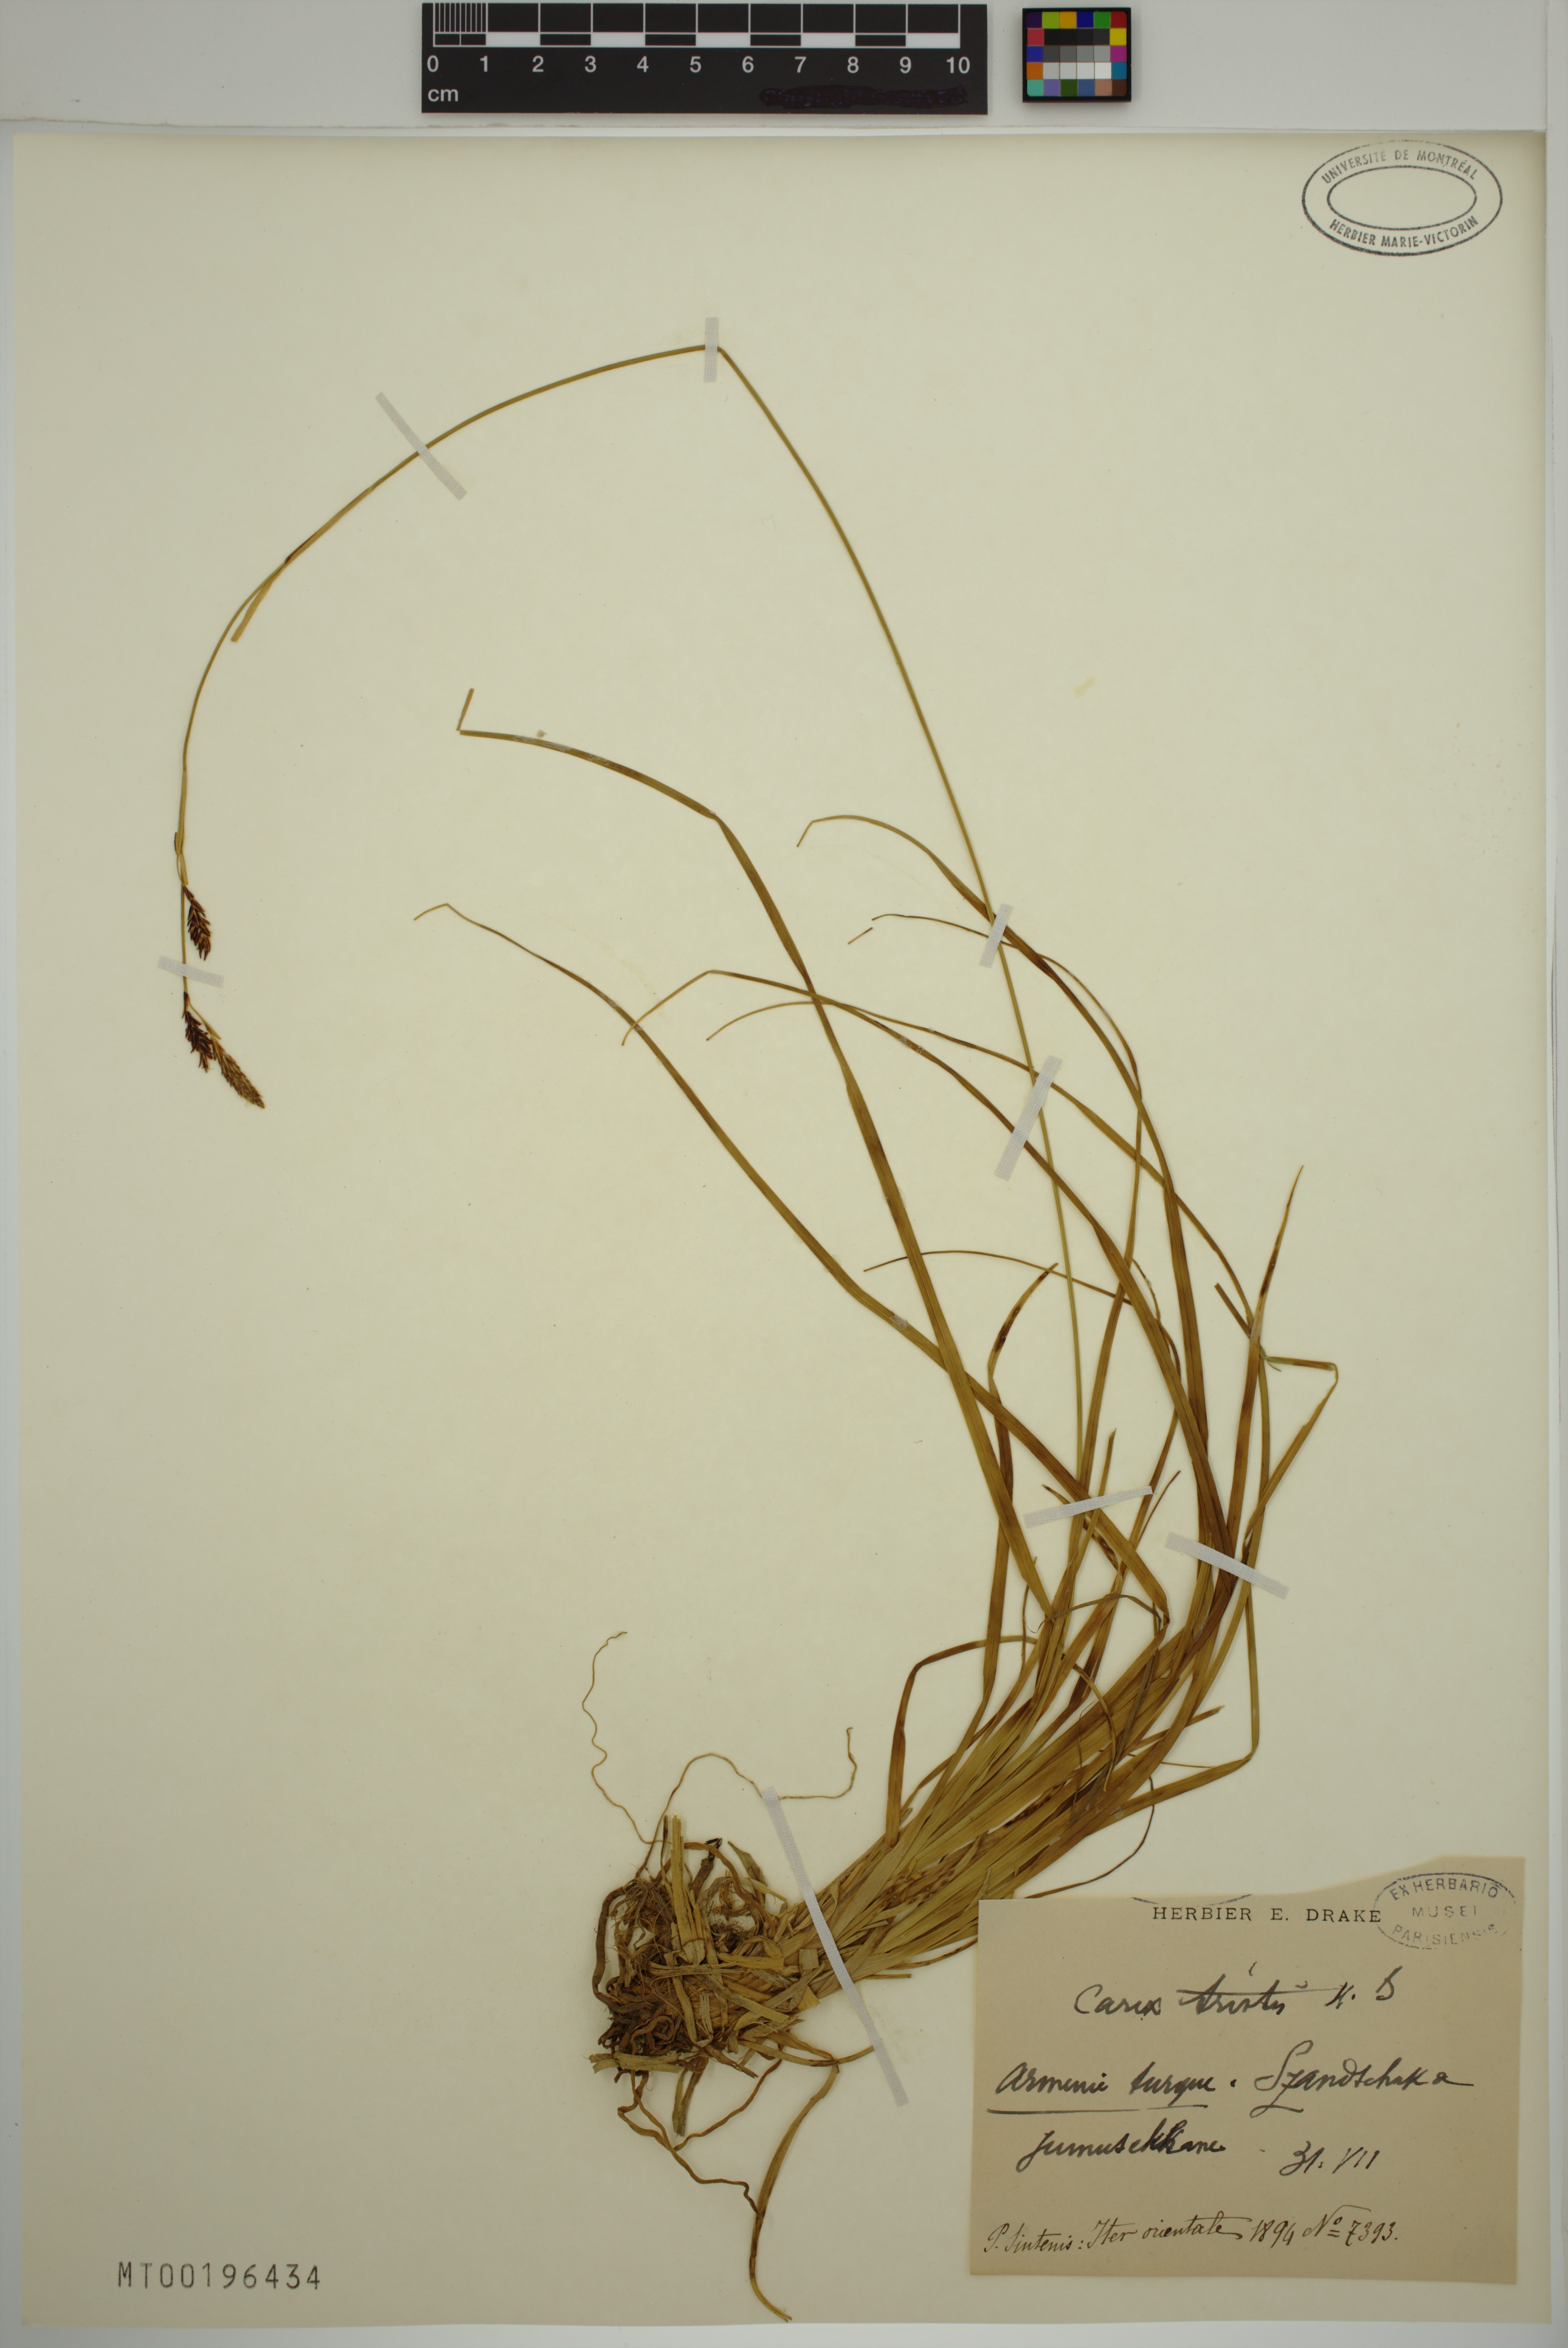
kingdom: Plantae
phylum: Tracheophyta
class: Liliopsida
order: Poales
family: Cyperaceae
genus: Carex
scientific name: Carex tristis
